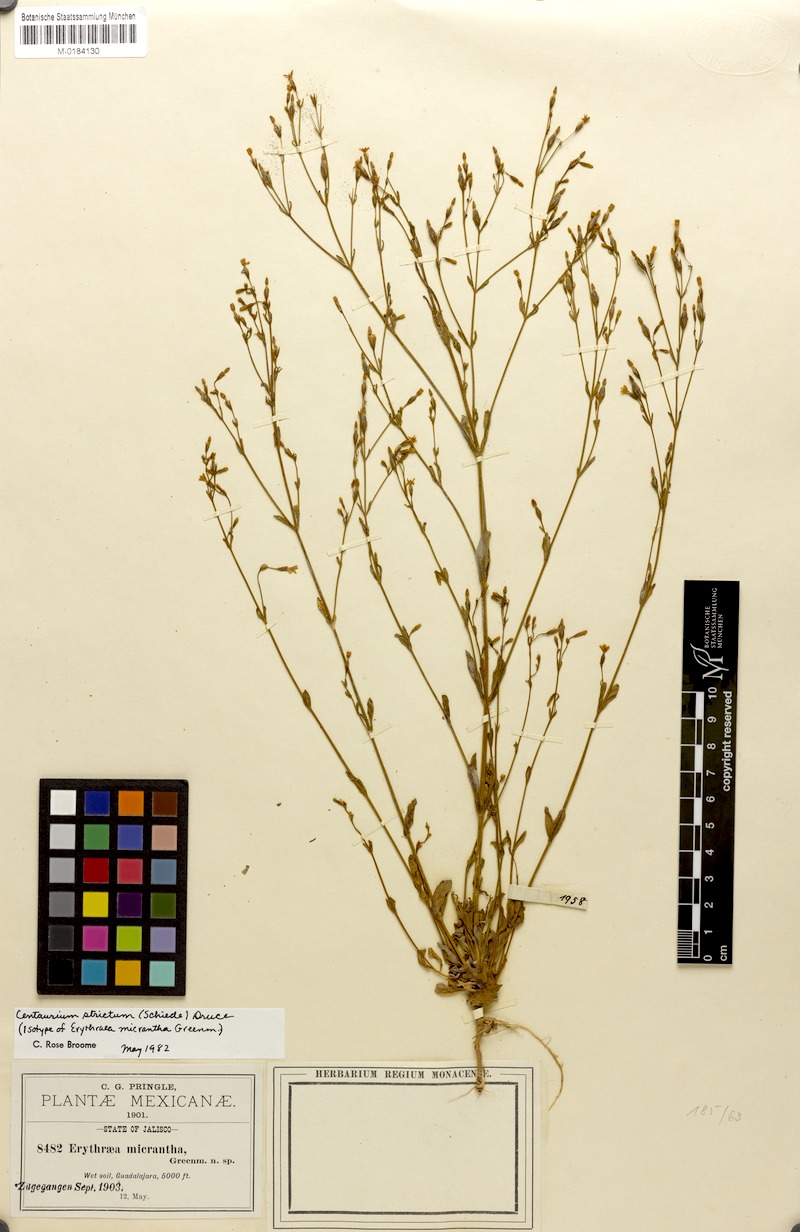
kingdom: Plantae
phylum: Tracheophyta
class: Magnoliopsida
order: Gentianales
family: Gentianaceae
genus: Zeltnera
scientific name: Zeltnera stricta
